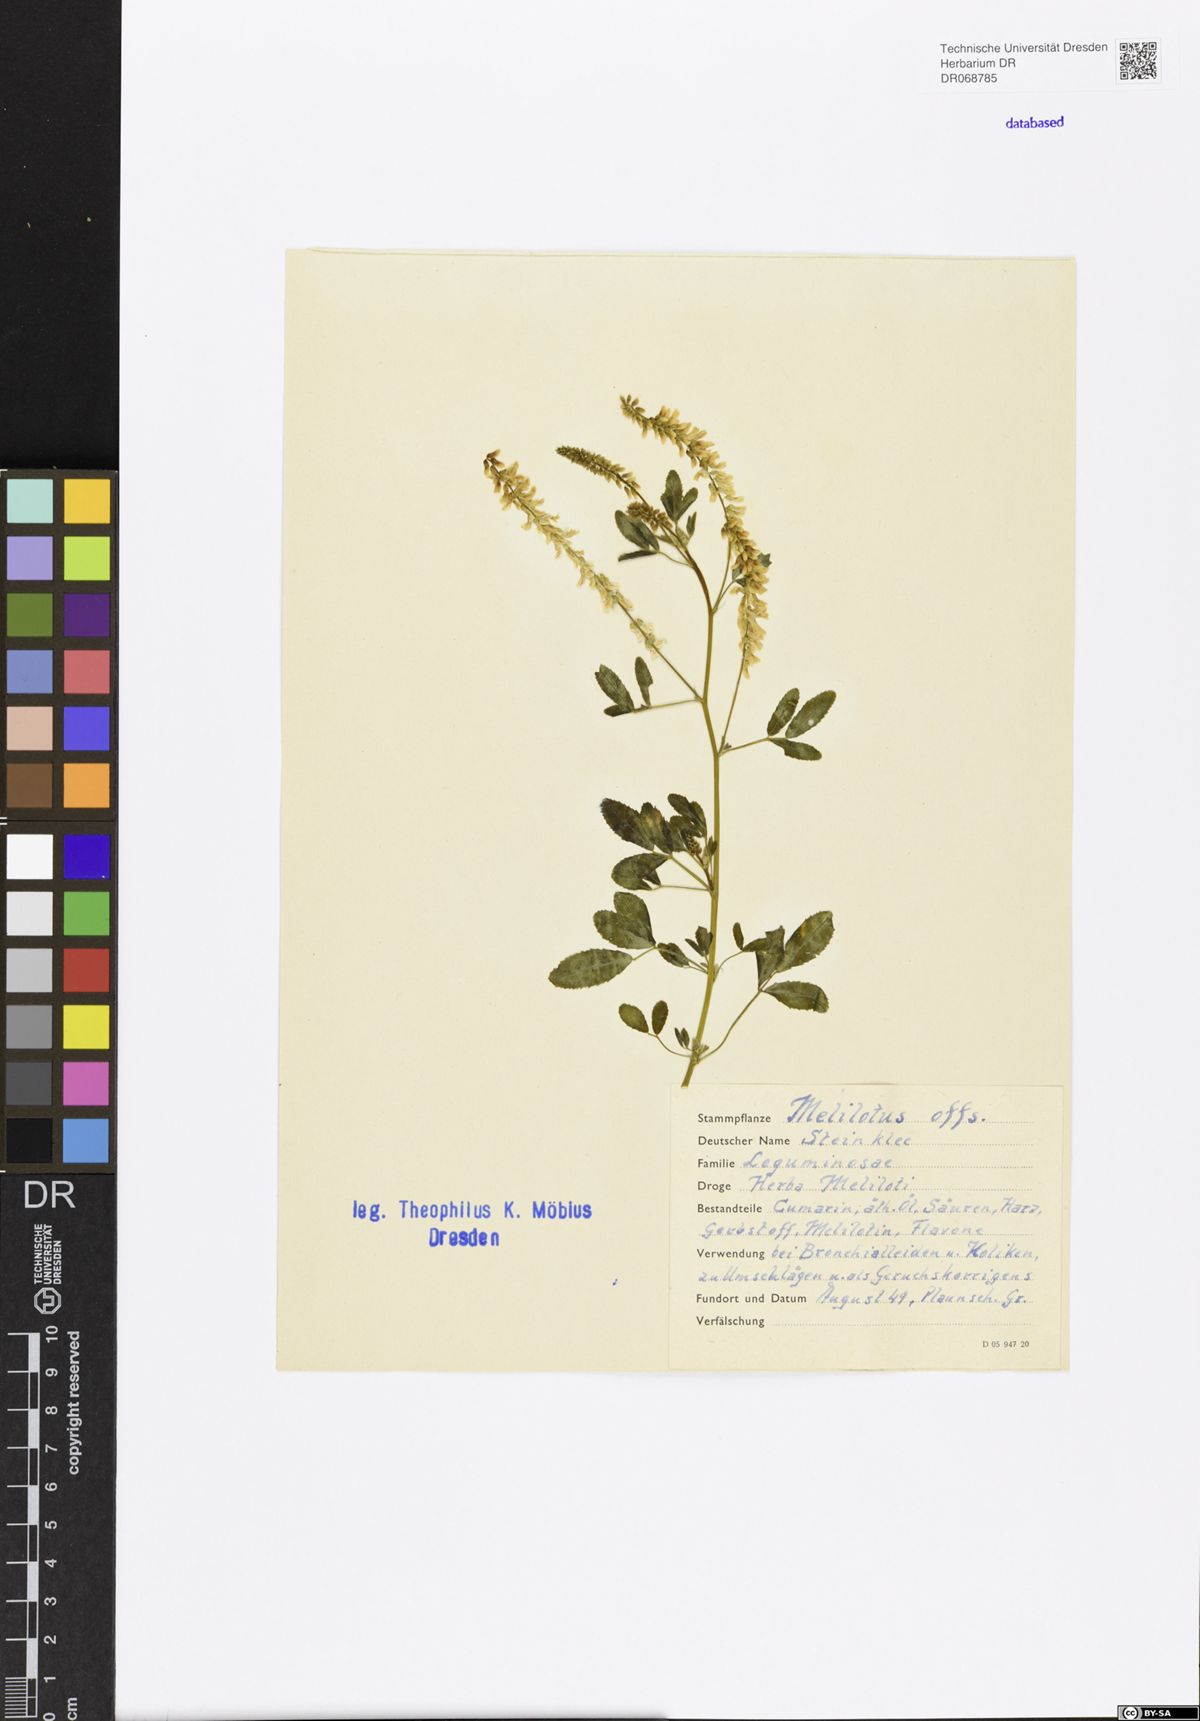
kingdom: Plantae
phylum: Tracheophyta
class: Magnoliopsida
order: Fabales
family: Fabaceae
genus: Melilotus
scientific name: Melilotus officinalis
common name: Sweetclover
